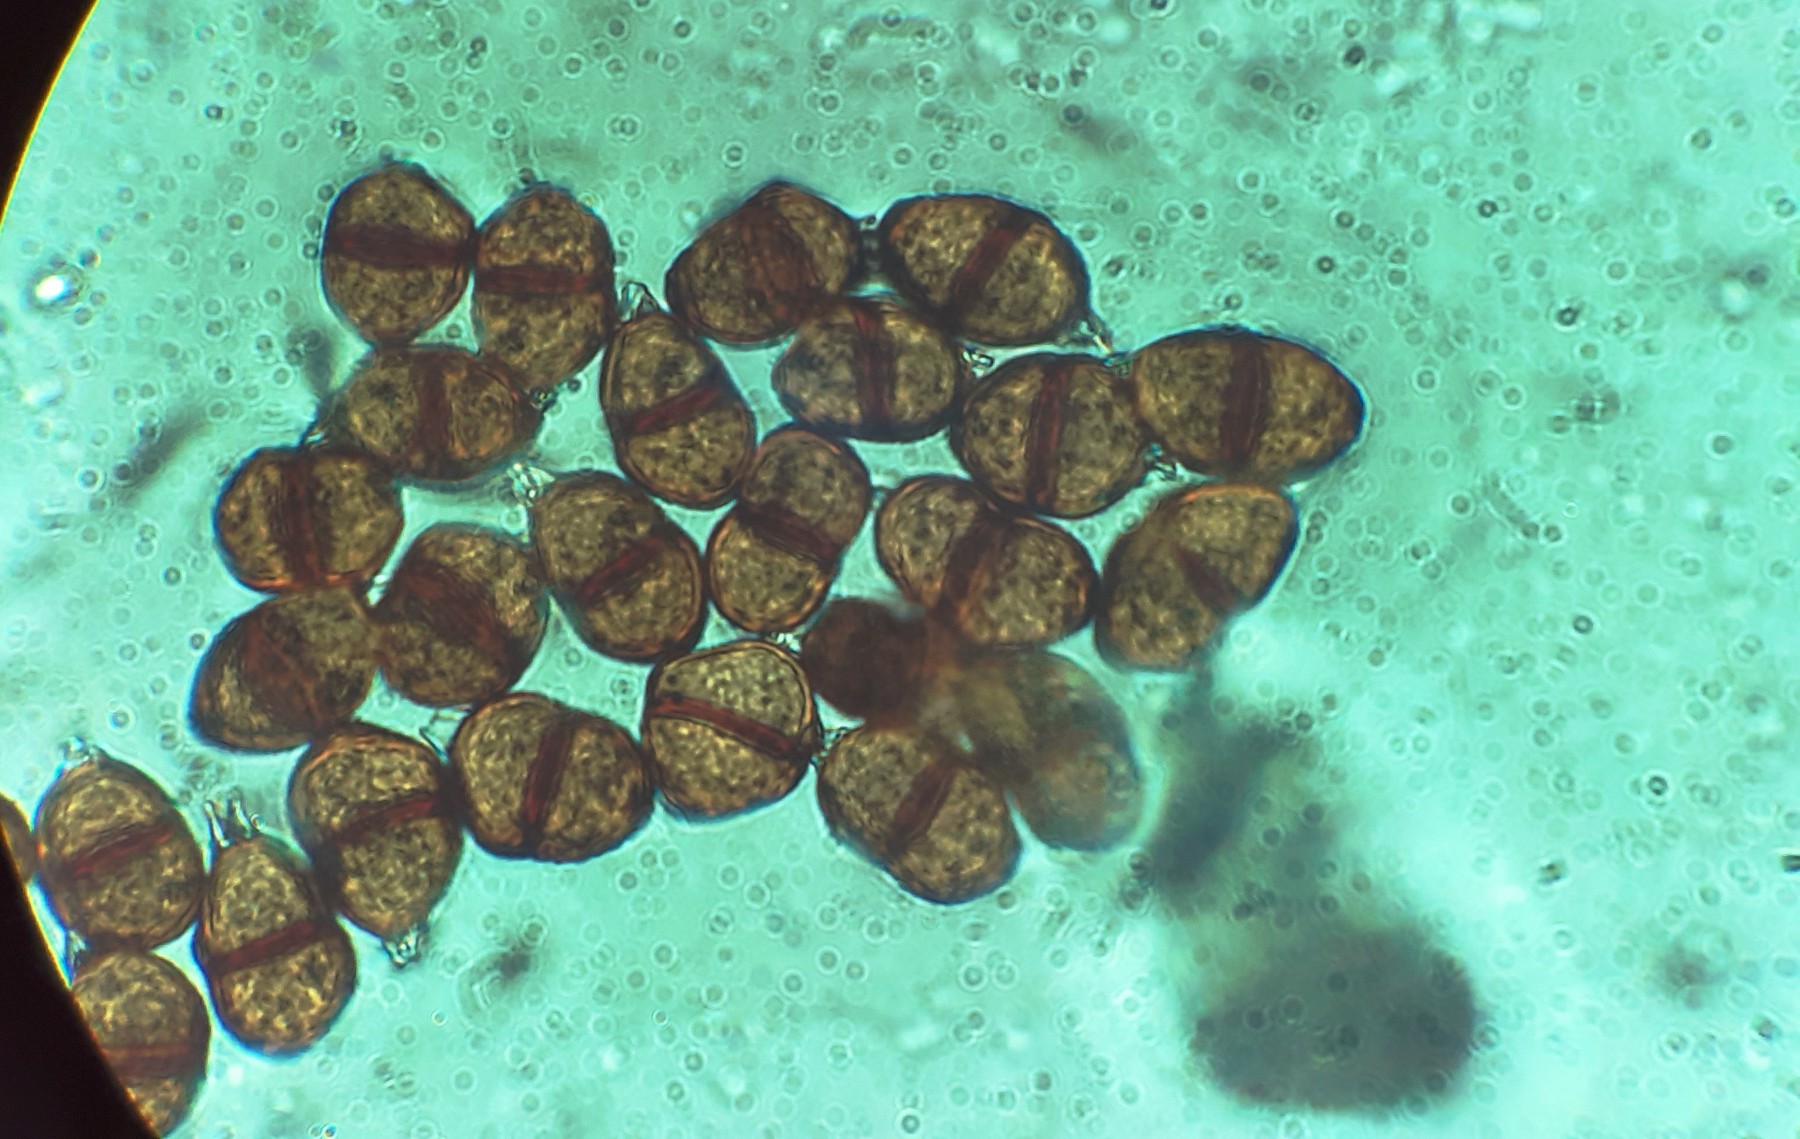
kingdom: Fungi
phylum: Basidiomycota
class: Pucciniomycetes
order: Pucciniales
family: Pucciniaceae
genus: Puccinia
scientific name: Puccinia violae
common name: viol-tvecellerust
